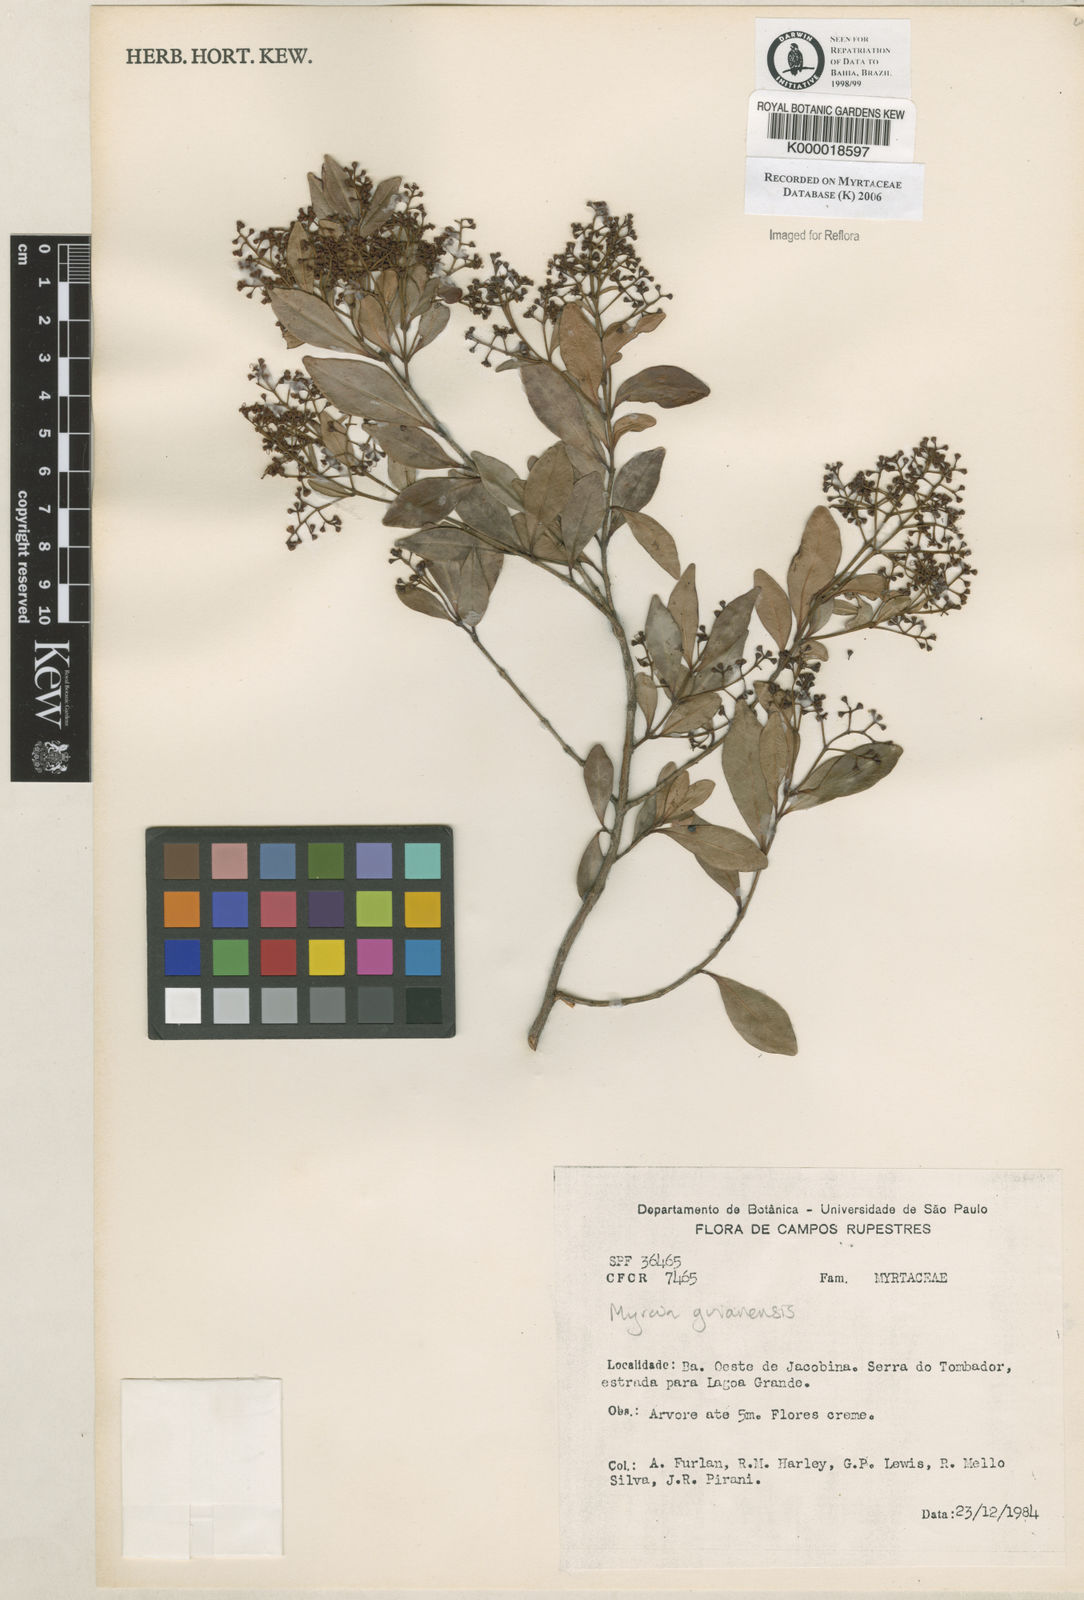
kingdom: Plantae
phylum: Tracheophyta
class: Magnoliopsida
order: Myrtales
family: Myrtaceae
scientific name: Myrtaceae
